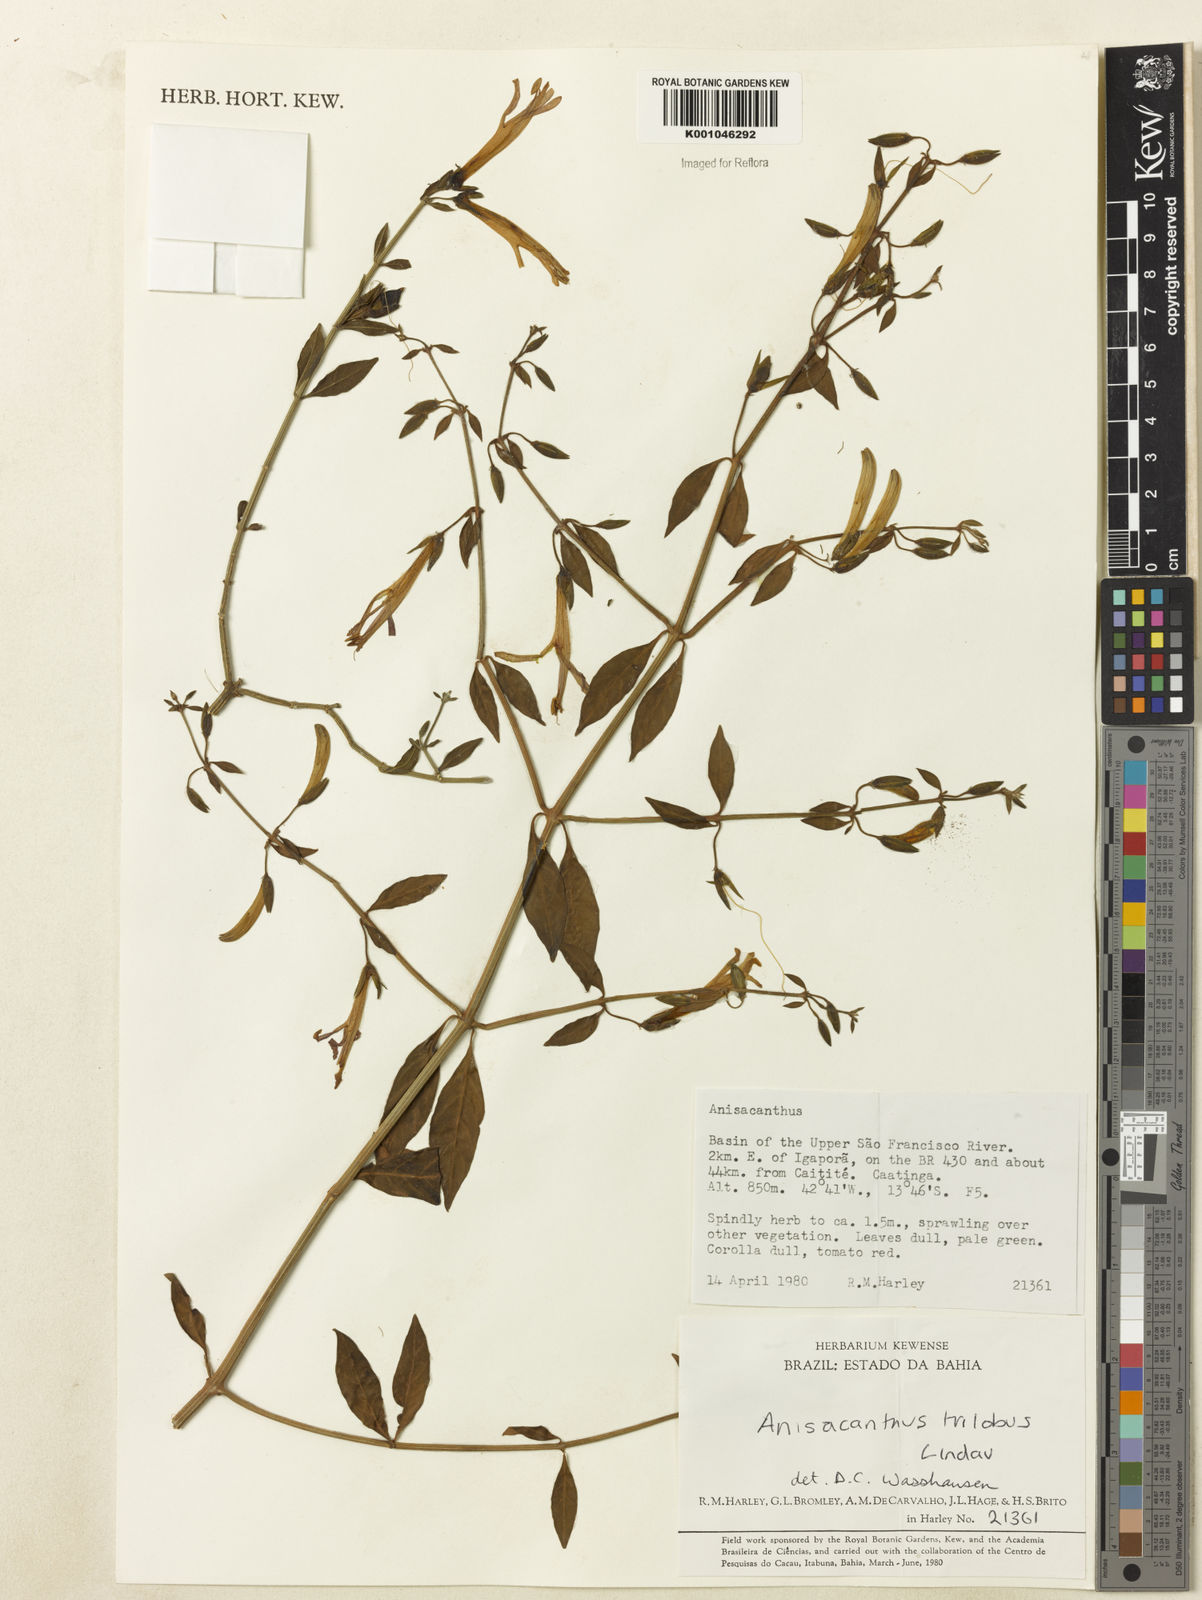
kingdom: Plantae
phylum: Tracheophyta
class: Magnoliopsida
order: Lamiales
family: Acanthaceae
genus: Justicia
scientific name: Justicia triloba
